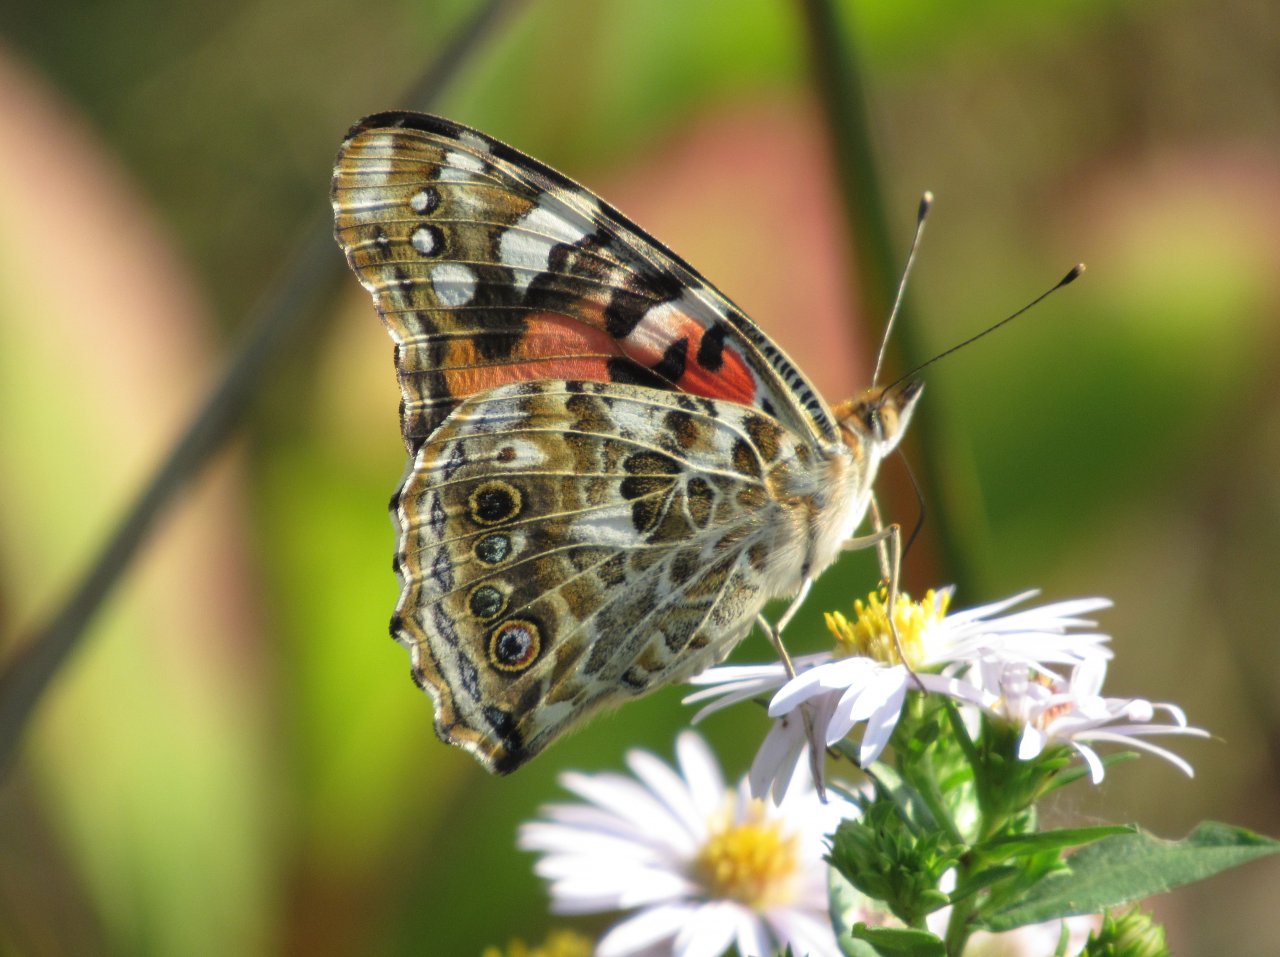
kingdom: Animalia
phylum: Arthropoda
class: Insecta
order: Lepidoptera
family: Nymphalidae
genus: Vanessa
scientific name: Vanessa cardui
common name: Painted Lady
